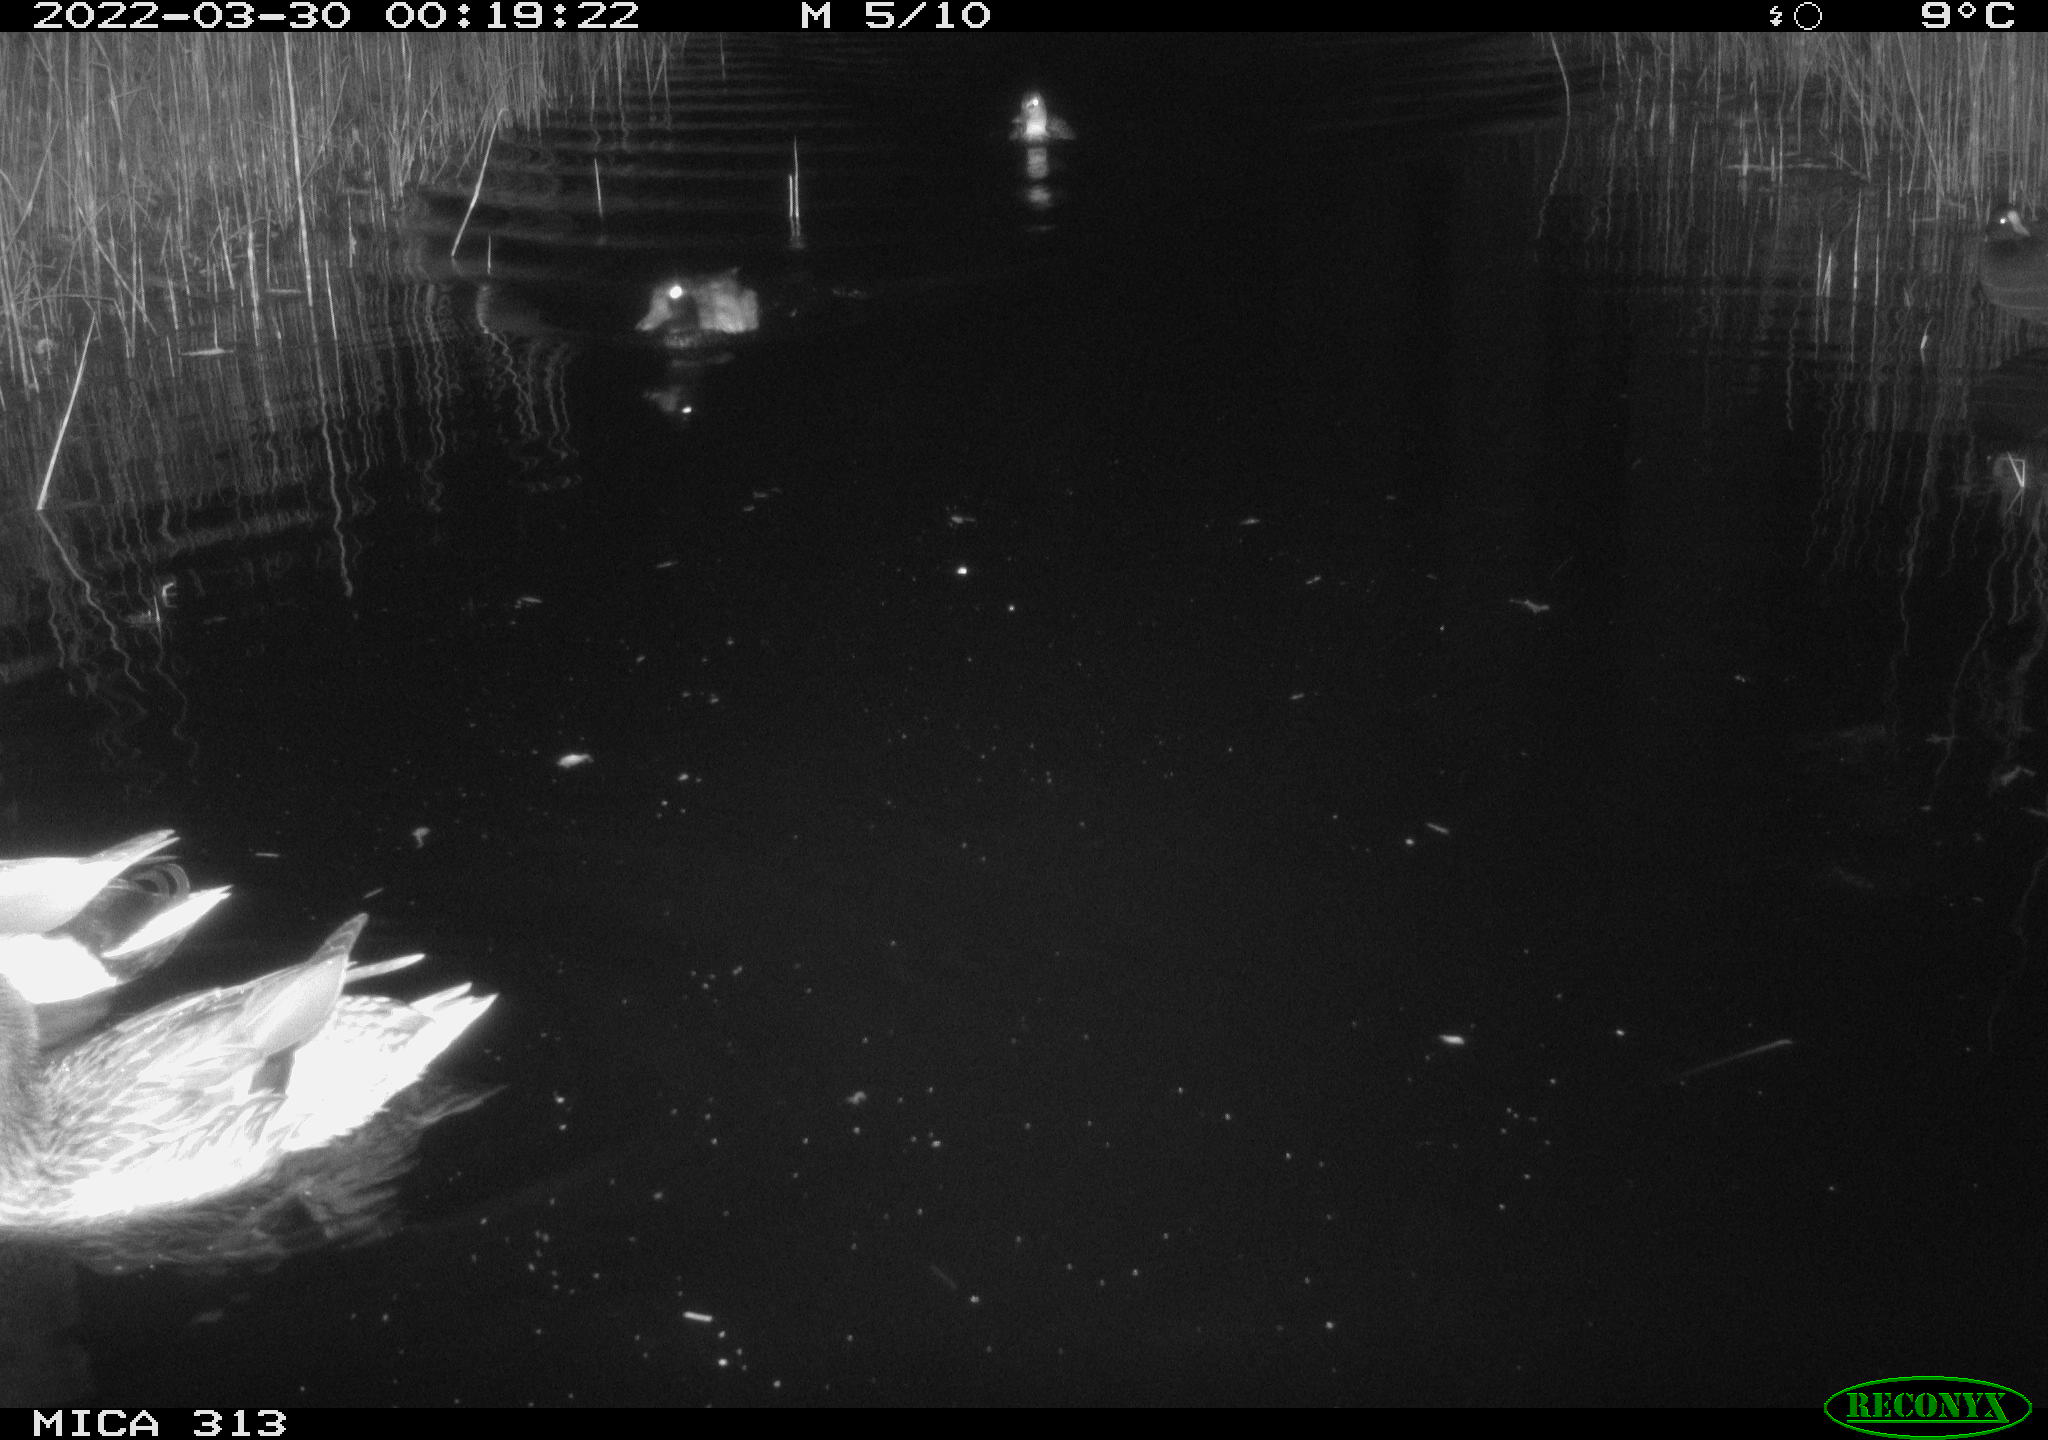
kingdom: Animalia
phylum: Chordata
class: Aves
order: Anseriformes
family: Anatidae
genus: Anas
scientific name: Anas platyrhynchos
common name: Mallard
